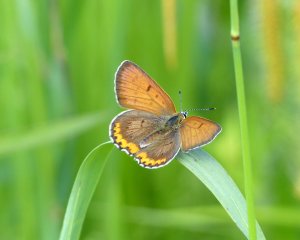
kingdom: Animalia
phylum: Arthropoda
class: Insecta
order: Lepidoptera
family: Sesiidae
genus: Sesia
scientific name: Sesia Lycaena hyllus
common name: Bronze Copper
